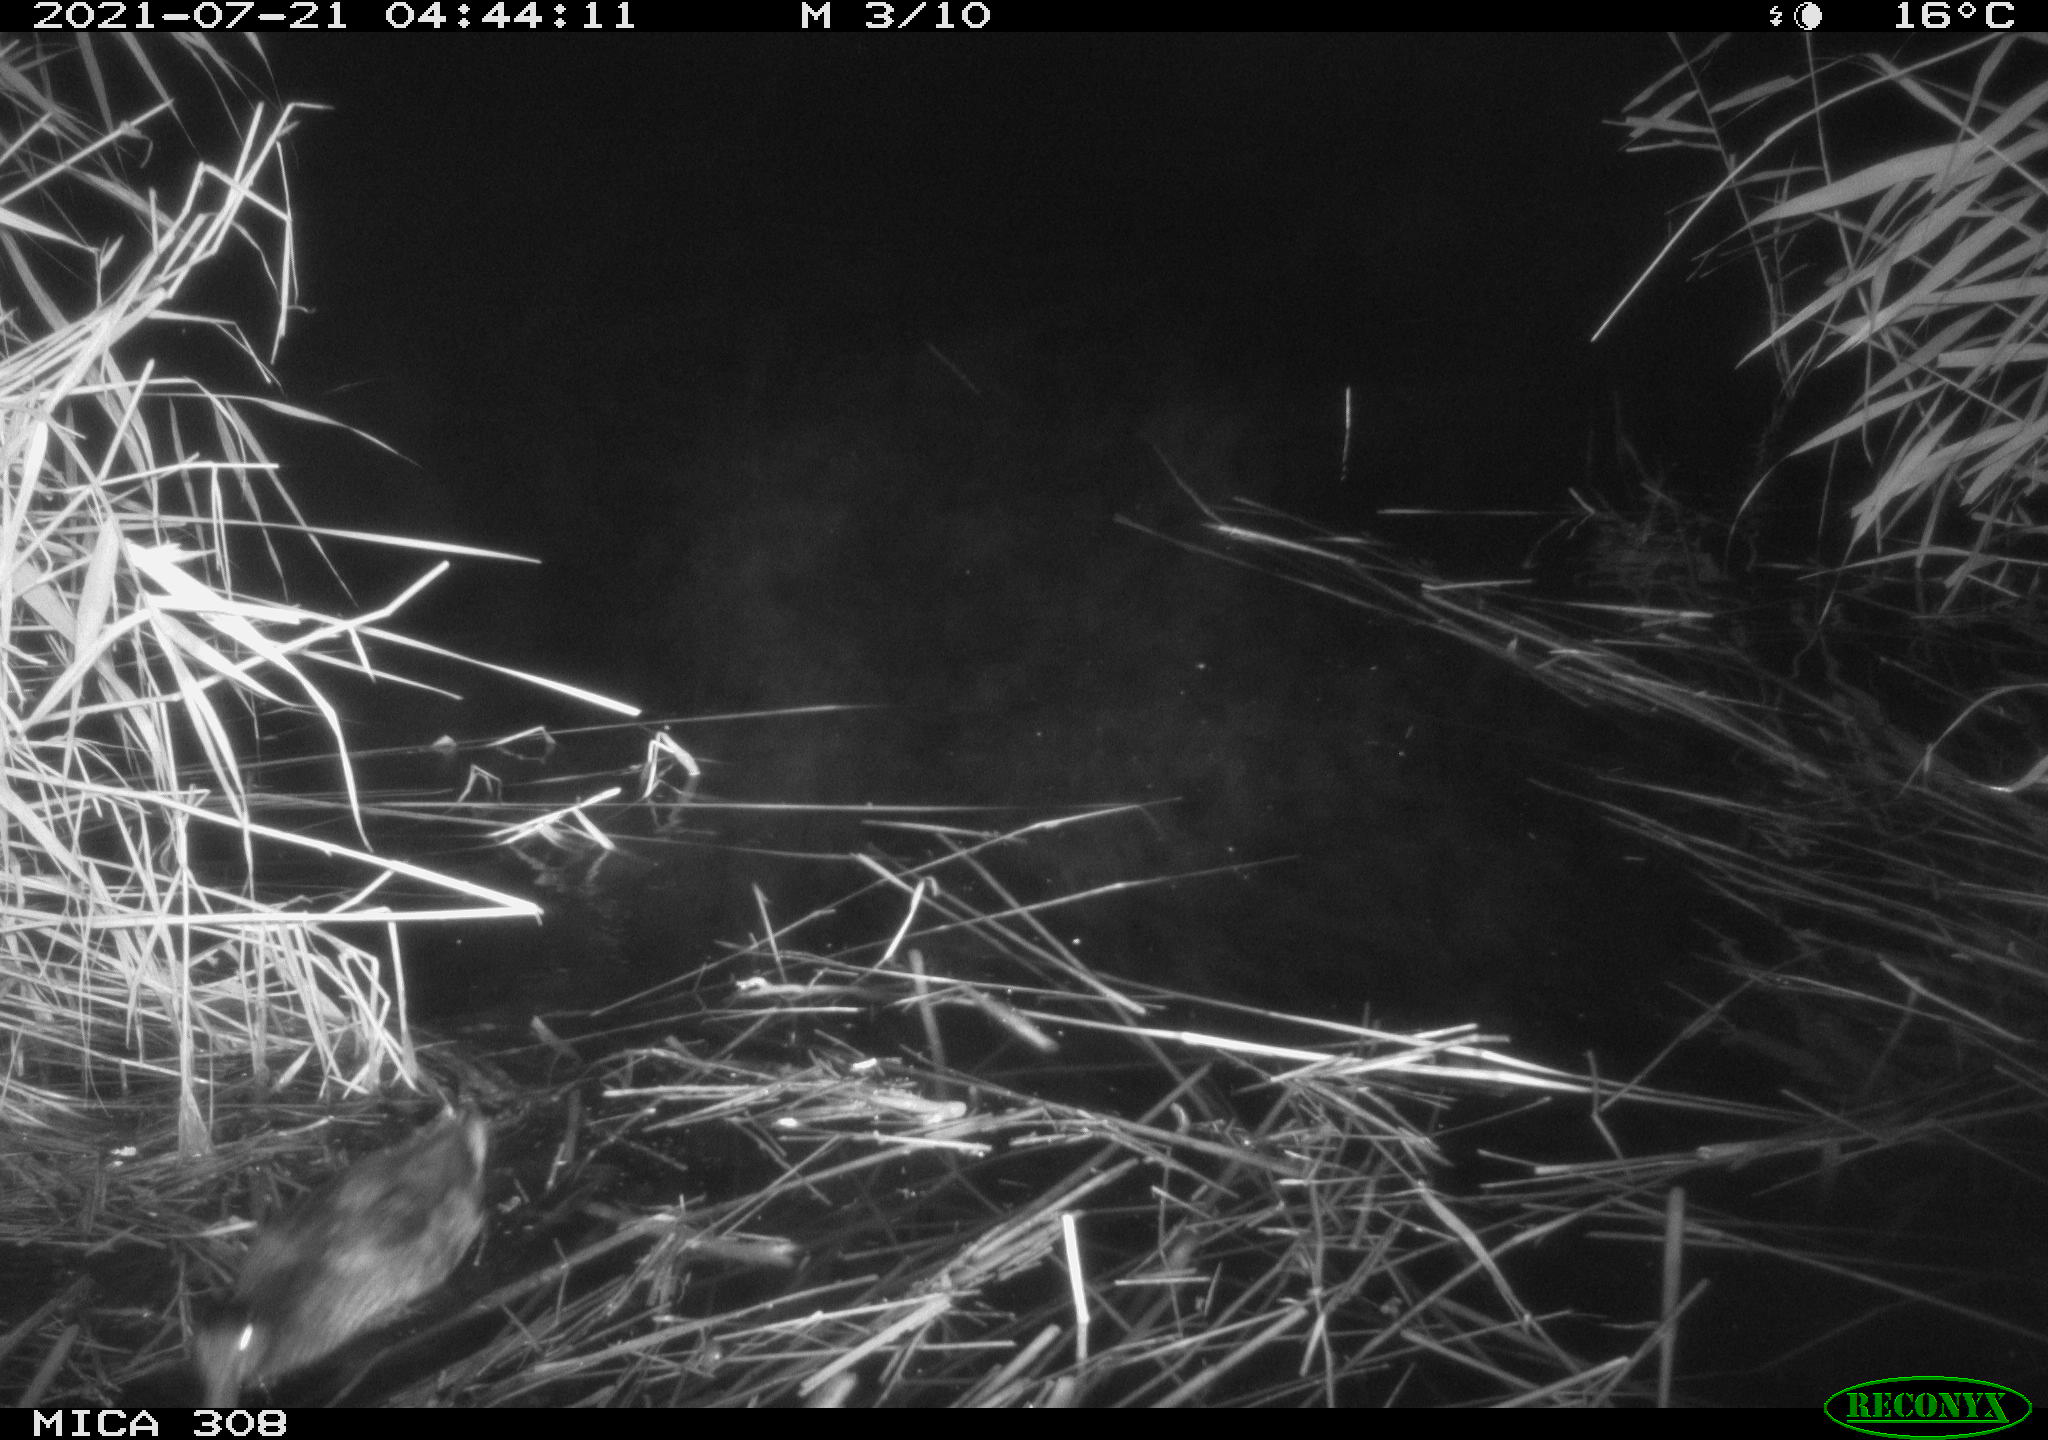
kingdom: Animalia
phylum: Chordata
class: Aves
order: Anseriformes
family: Anatidae
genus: Anas
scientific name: Anas platyrhynchos
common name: Mallard
